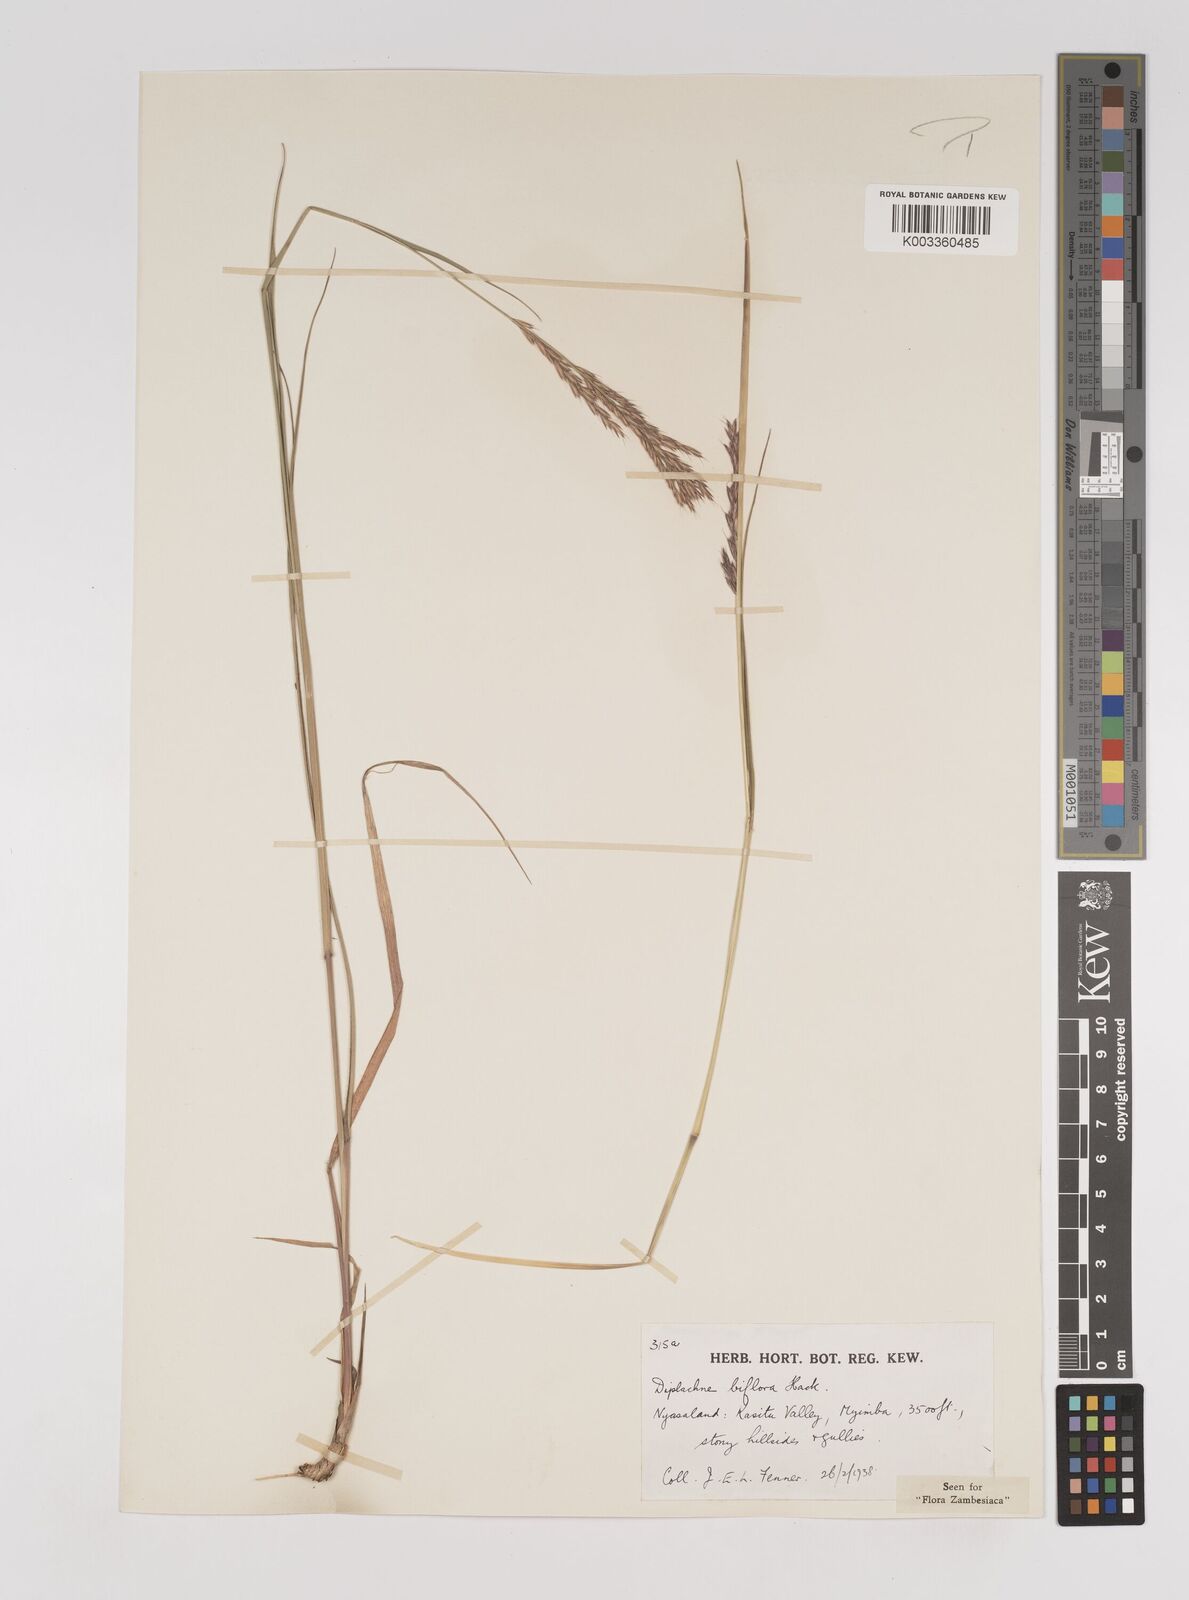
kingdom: Plantae
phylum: Tracheophyta
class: Liliopsida
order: Poales
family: Poaceae
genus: Bewsia
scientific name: Bewsia biflora
